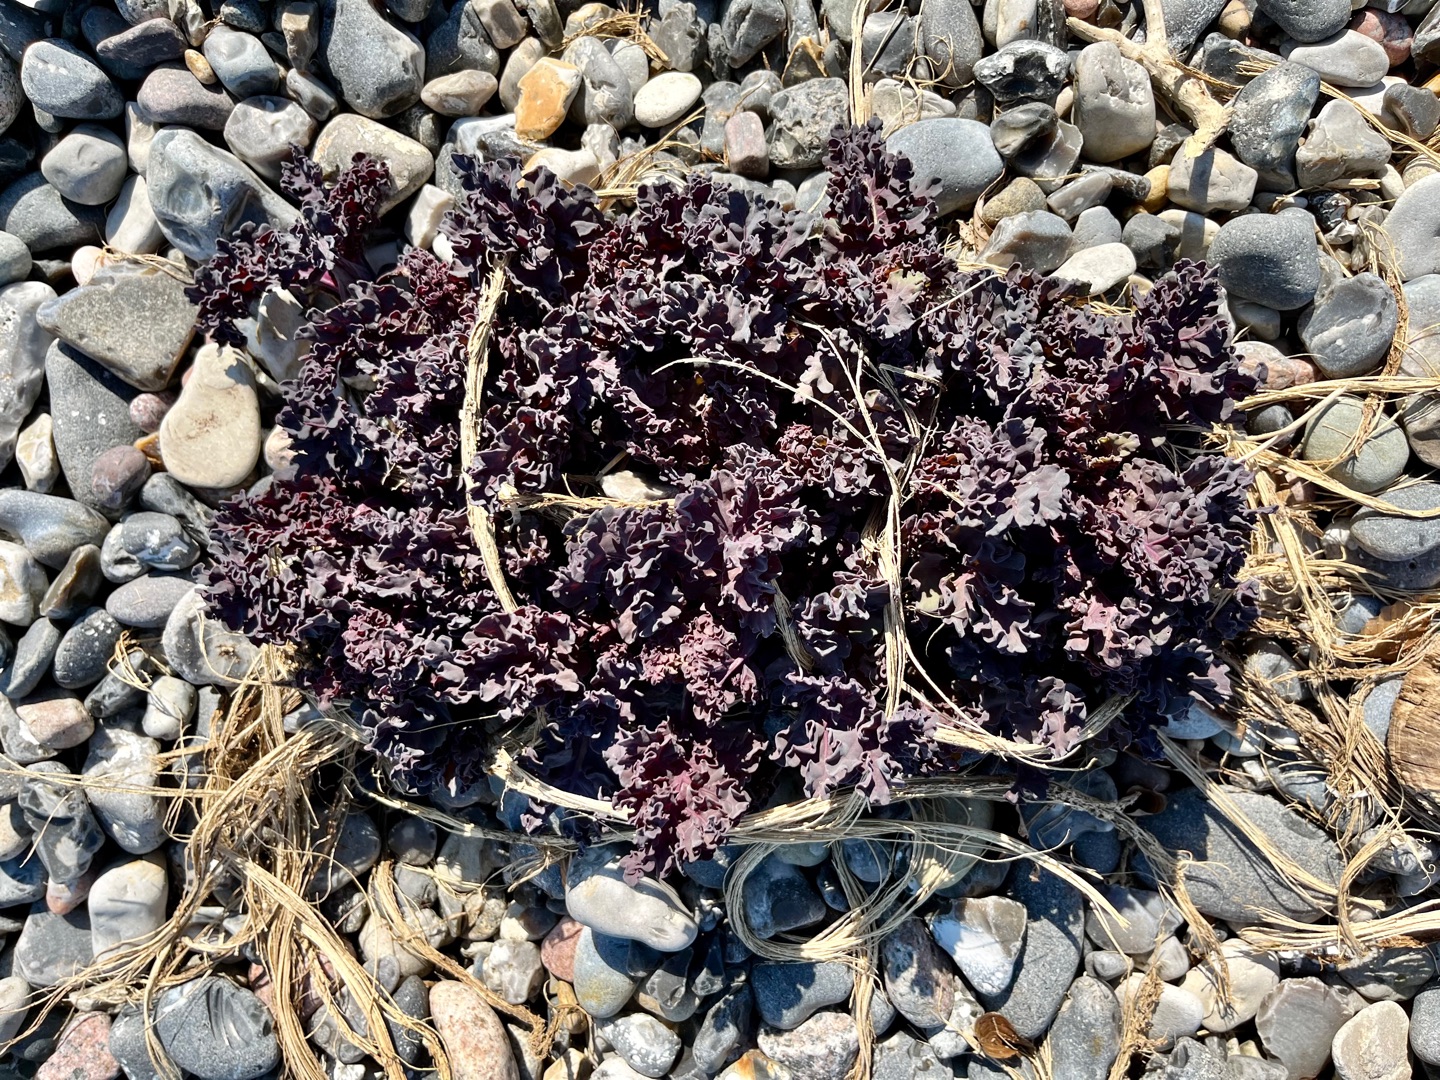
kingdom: Plantae
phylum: Tracheophyta
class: Magnoliopsida
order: Brassicales
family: Brassicaceae
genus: Crambe
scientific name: Crambe maritima
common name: Strandkål
